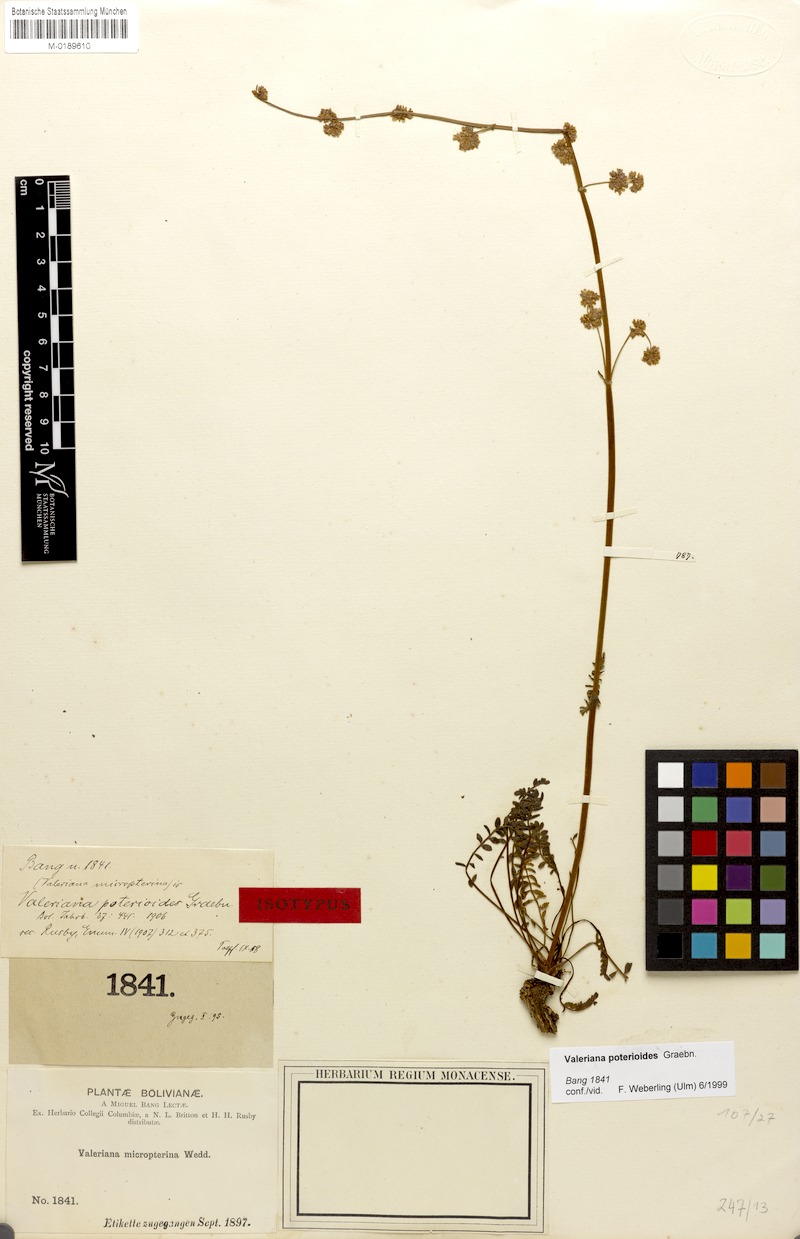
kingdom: Plantae
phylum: Tracheophyta
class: Magnoliopsida
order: Dipsacales
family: Caprifoliaceae
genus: Valeriana
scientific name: Valeriana micropterina
